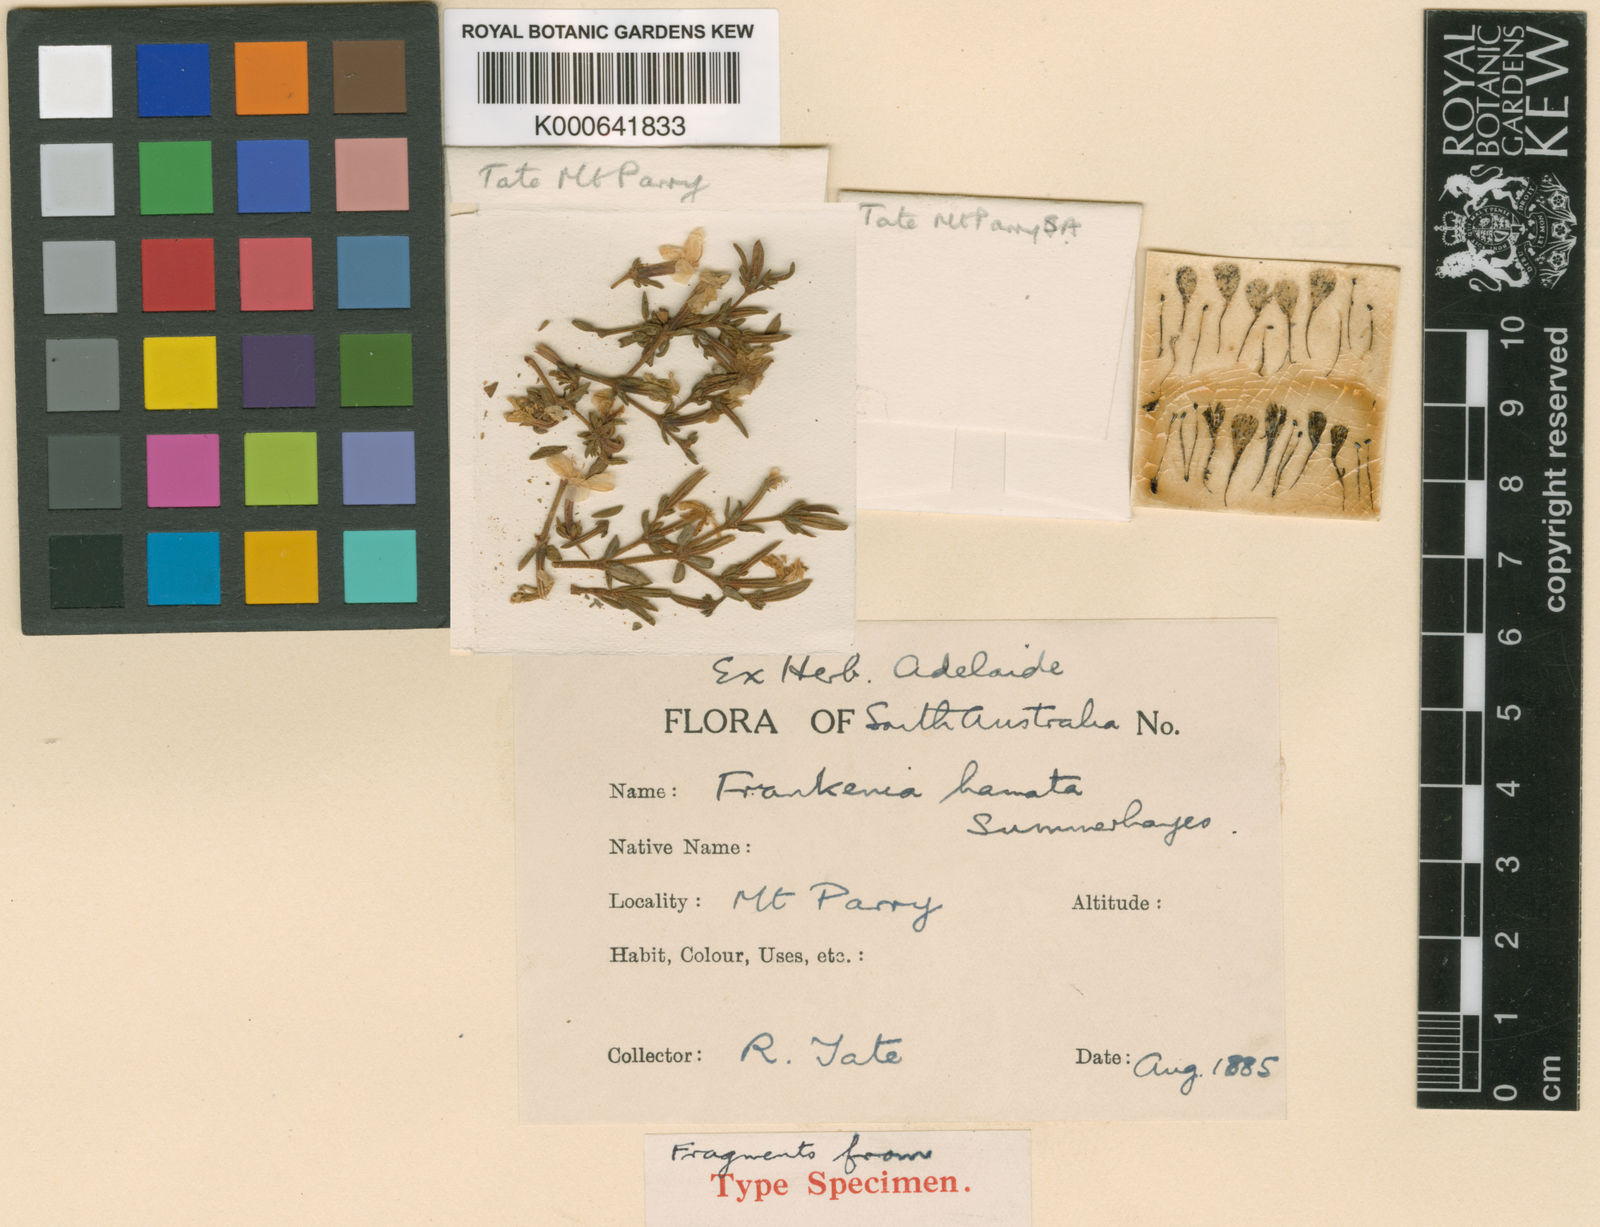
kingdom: Plantae
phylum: Tracheophyta
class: Magnoliopsida
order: Caryophyllales
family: Frankeniaceae
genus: Frankenia
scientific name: Frankenia uncinata
